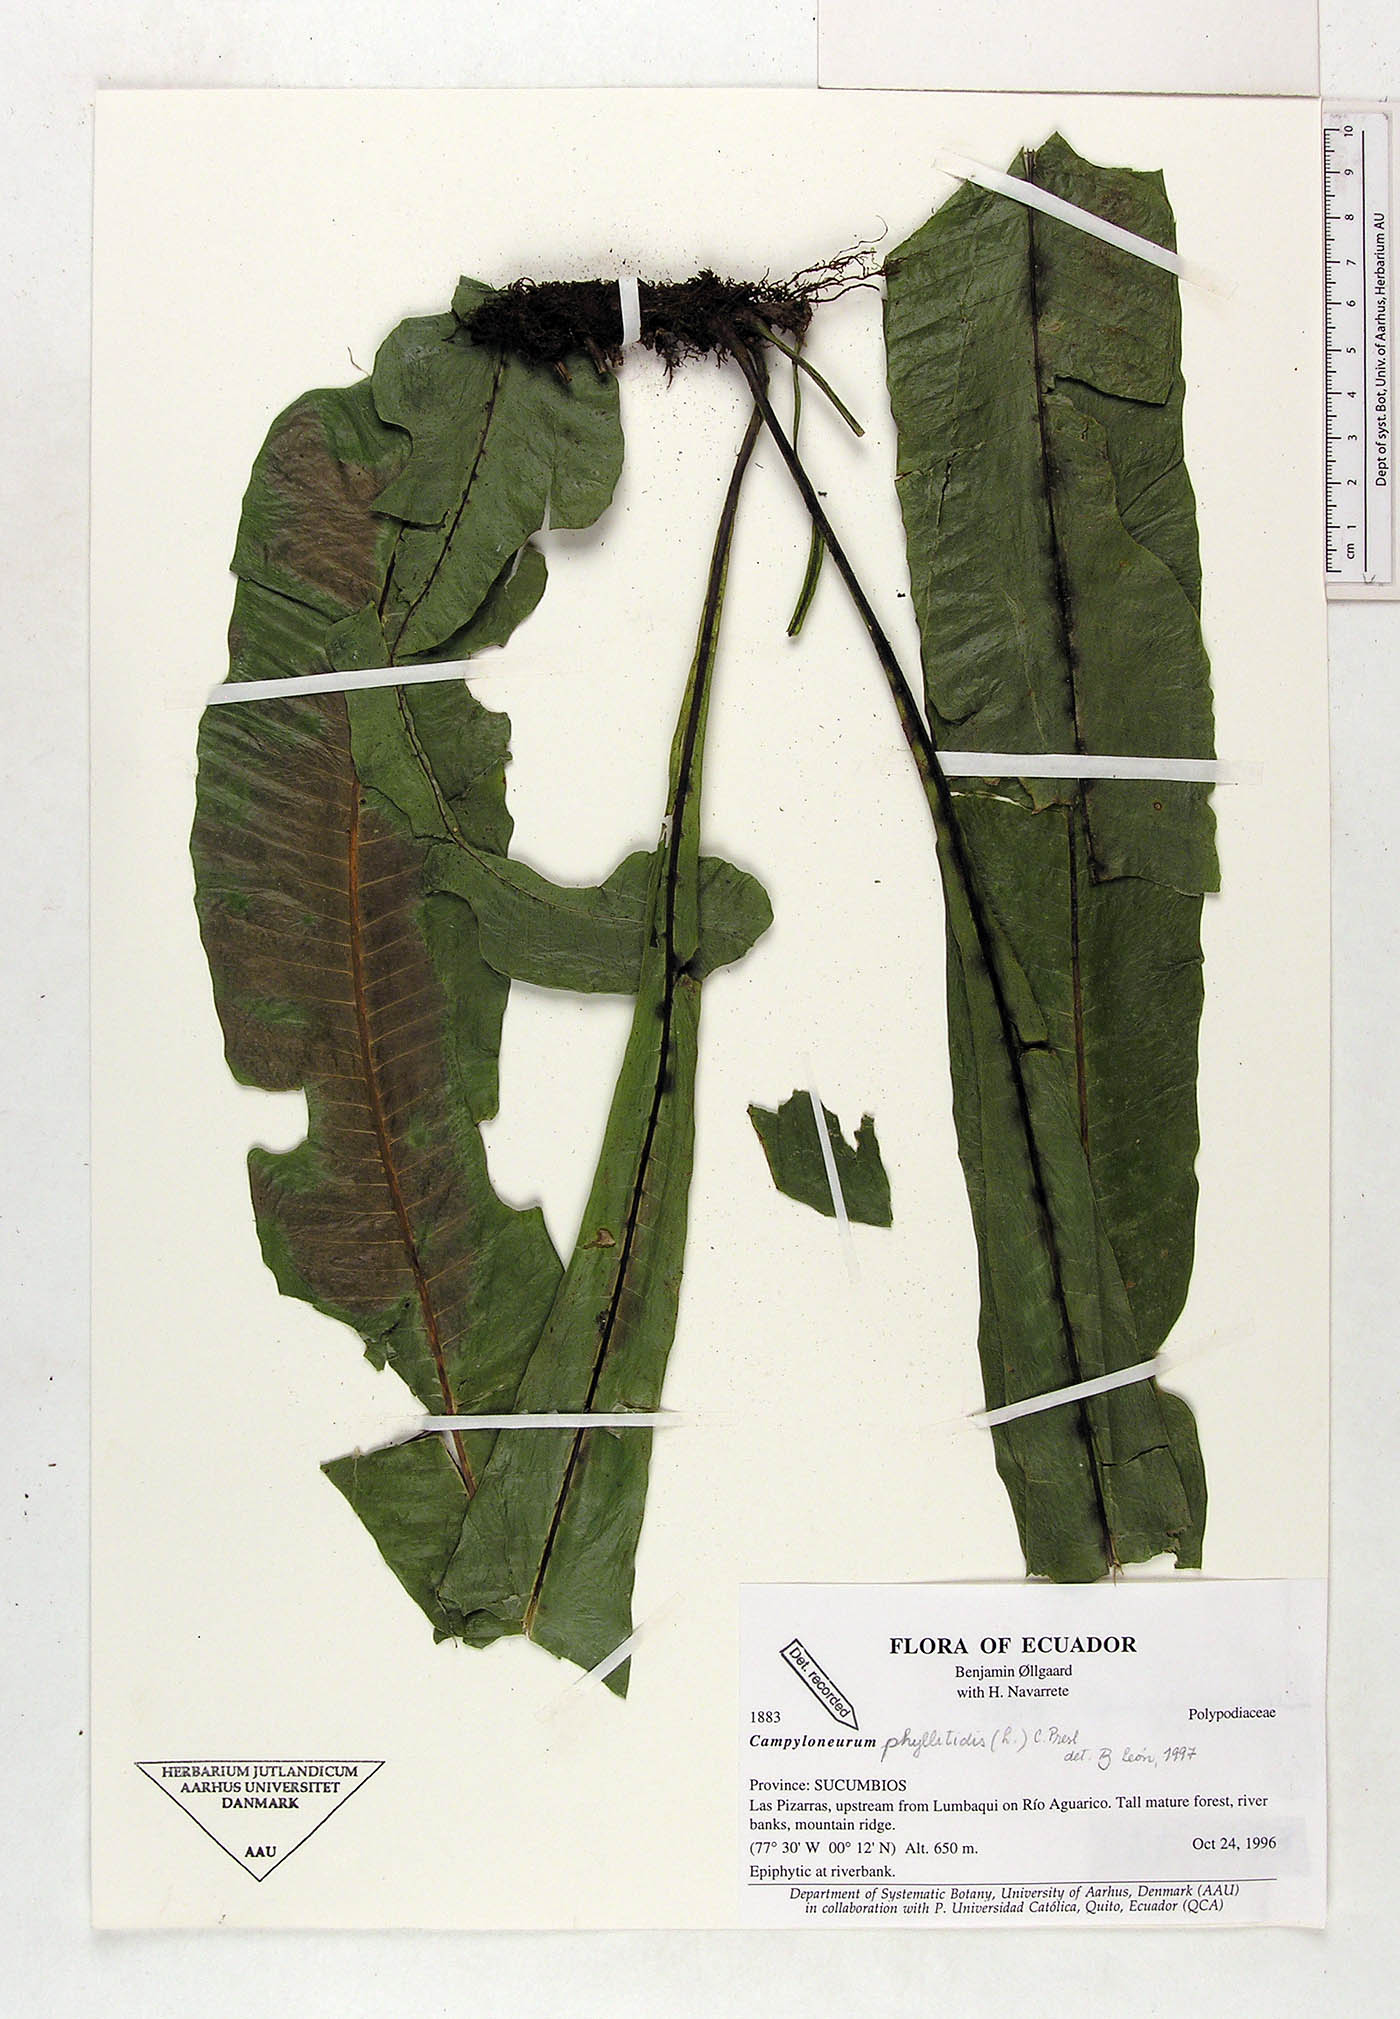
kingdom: Plantae
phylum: Tracheophyta
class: Polypodiopsida
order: Polypodiales
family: Polypodiaceae
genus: Campyloneurum
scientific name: Campyloneurum phyllitidis
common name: Cow-tongue fern
